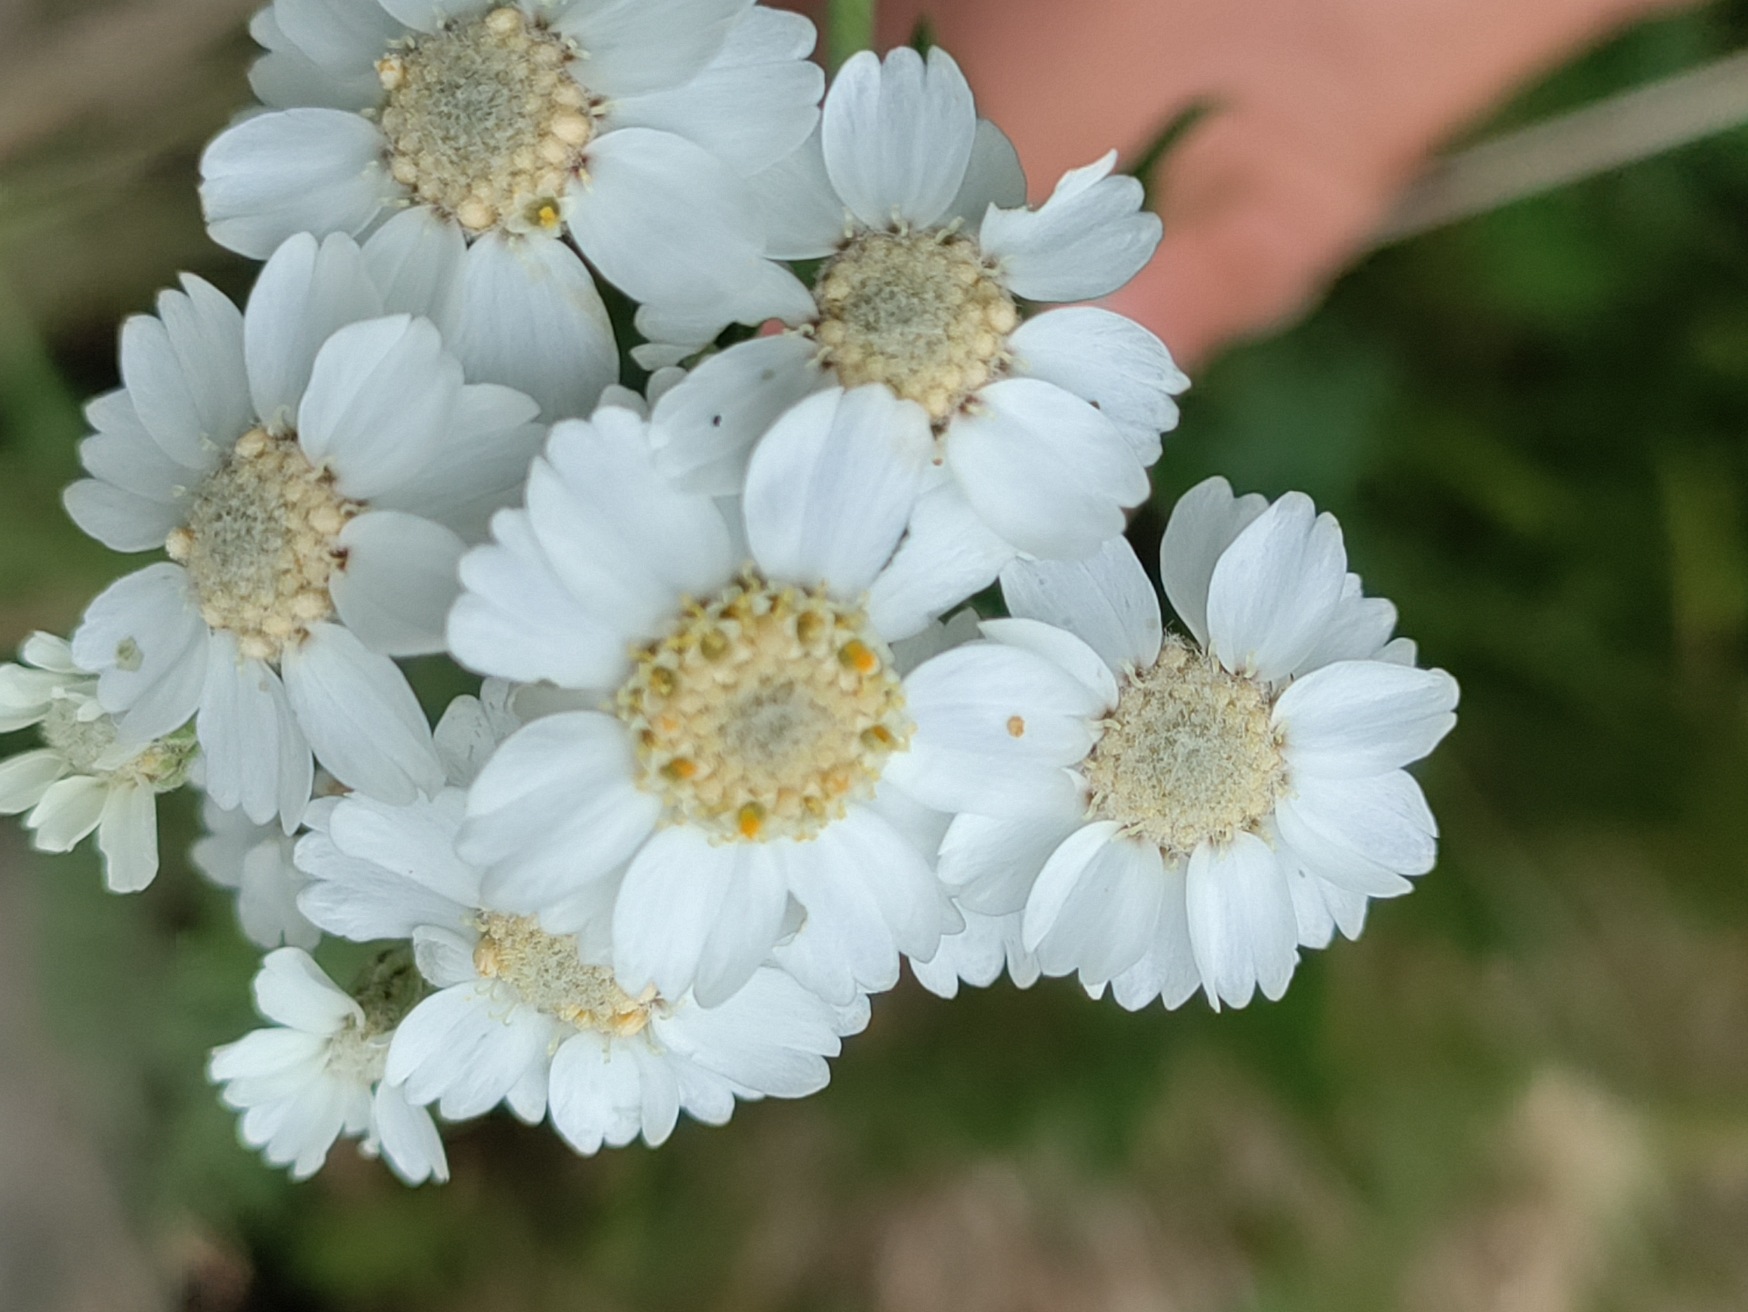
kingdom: Plantae
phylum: Tracheophyta
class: Magnoliopsida
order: Asterales
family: Asteraceae
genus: Achillea
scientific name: Achillea ptarmica
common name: Nyse-røllike
